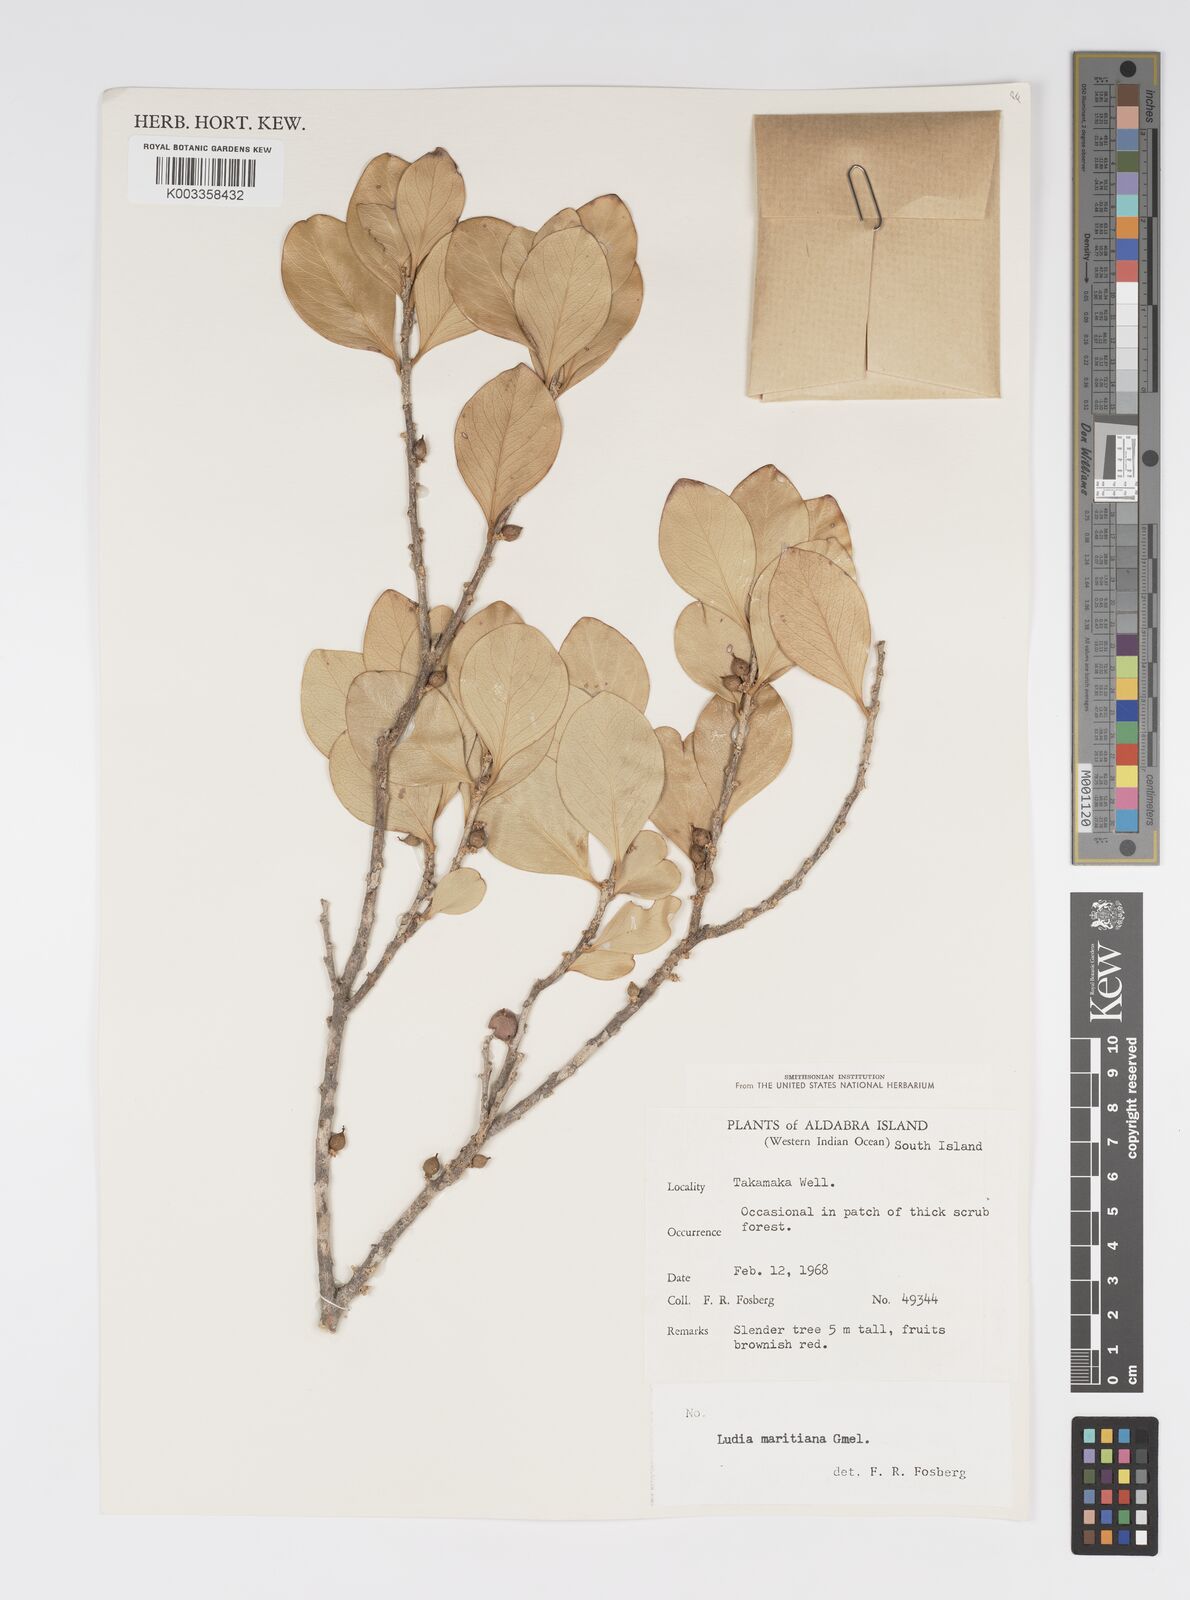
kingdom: Plantae
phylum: Tracheophyta
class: Magnoliopsida
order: Malpighiales
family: Salicaceae
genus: Ludia
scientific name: Ludia mauritiana
